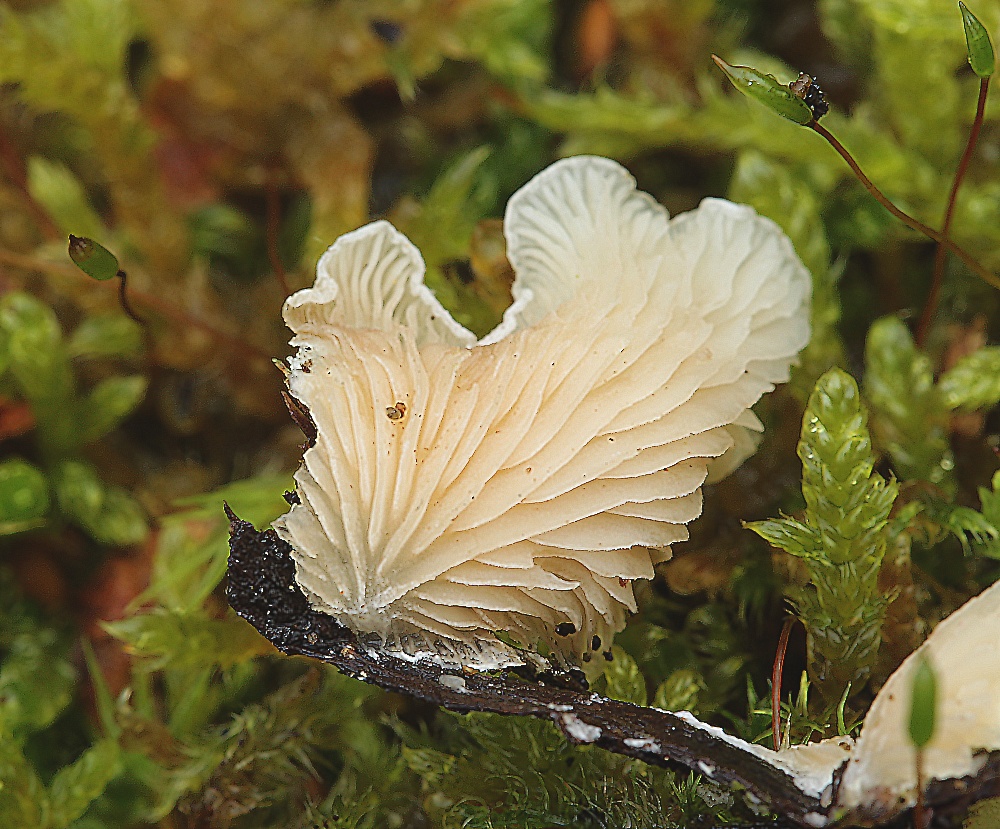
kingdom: Fungi
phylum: Basidiomycota
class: Agaricomycetes
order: Agaricales
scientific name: Agaricales
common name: champignonordenen
